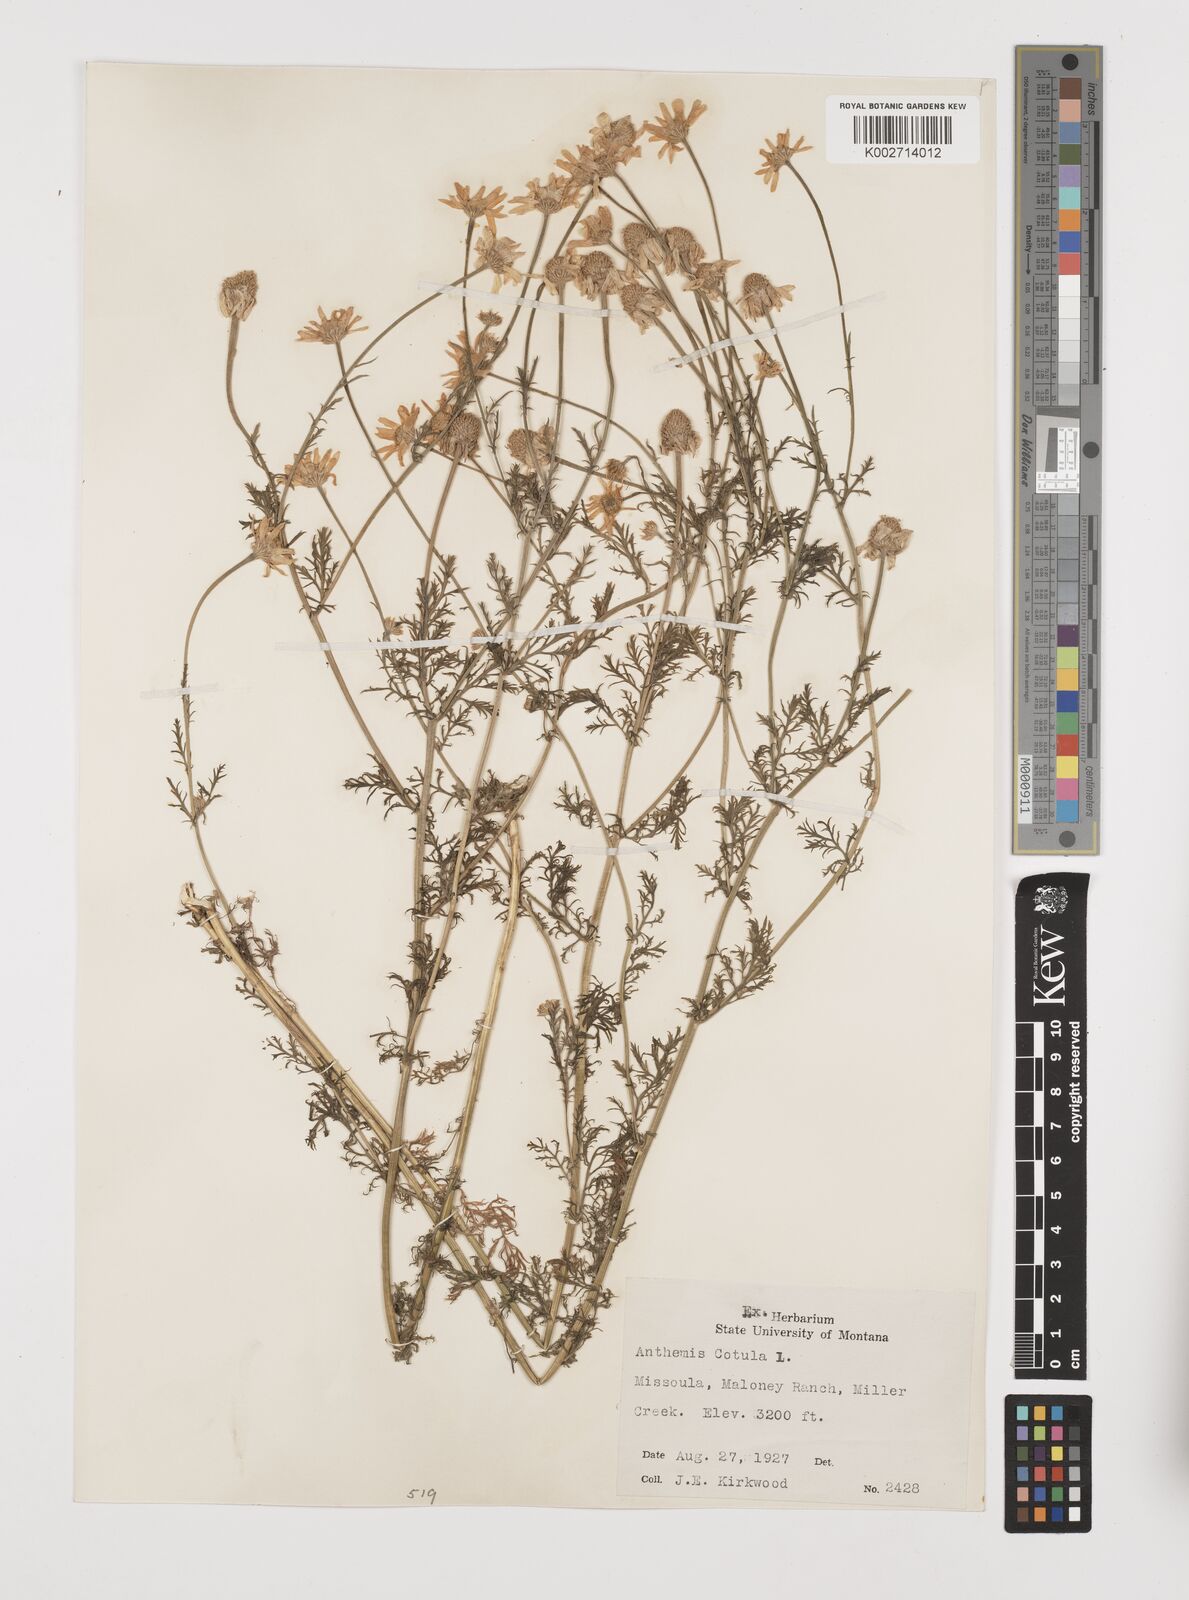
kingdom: Plantae
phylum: Tracheophyta
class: Magnoliopsida
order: Asterales
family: Asteraceae
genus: Anthemis
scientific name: Anthemis cotula
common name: Stinking chamomile
